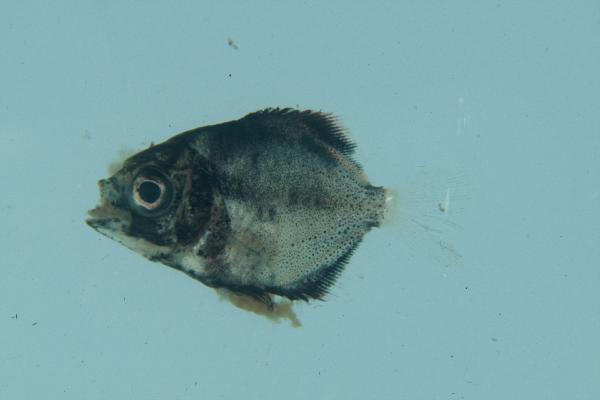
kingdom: Animalia
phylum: Chordata
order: Perciformes
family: Monodactylidae
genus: Monodactylus
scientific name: Monodactylus argenteus
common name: Silver moony
